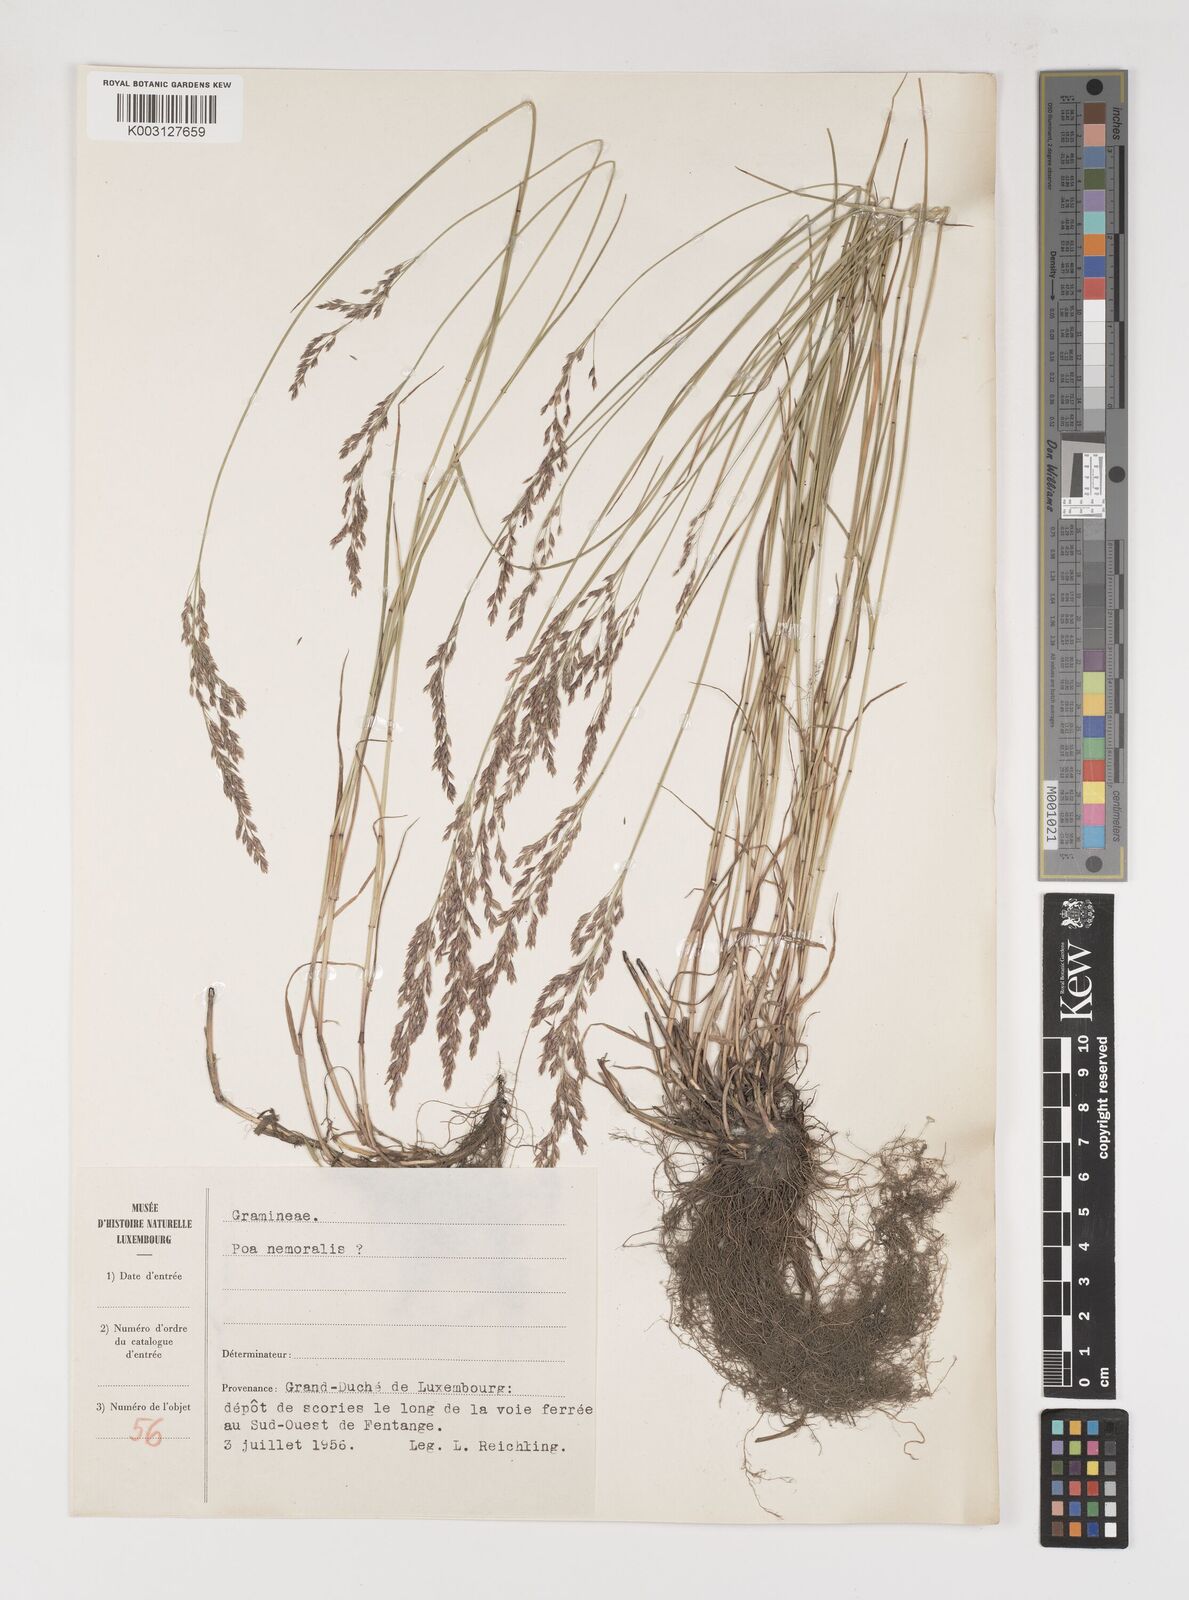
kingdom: Plantae
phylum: Tracheophyta
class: Liliopsida
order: Poales
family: Poaceae
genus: Poa
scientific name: Poa
